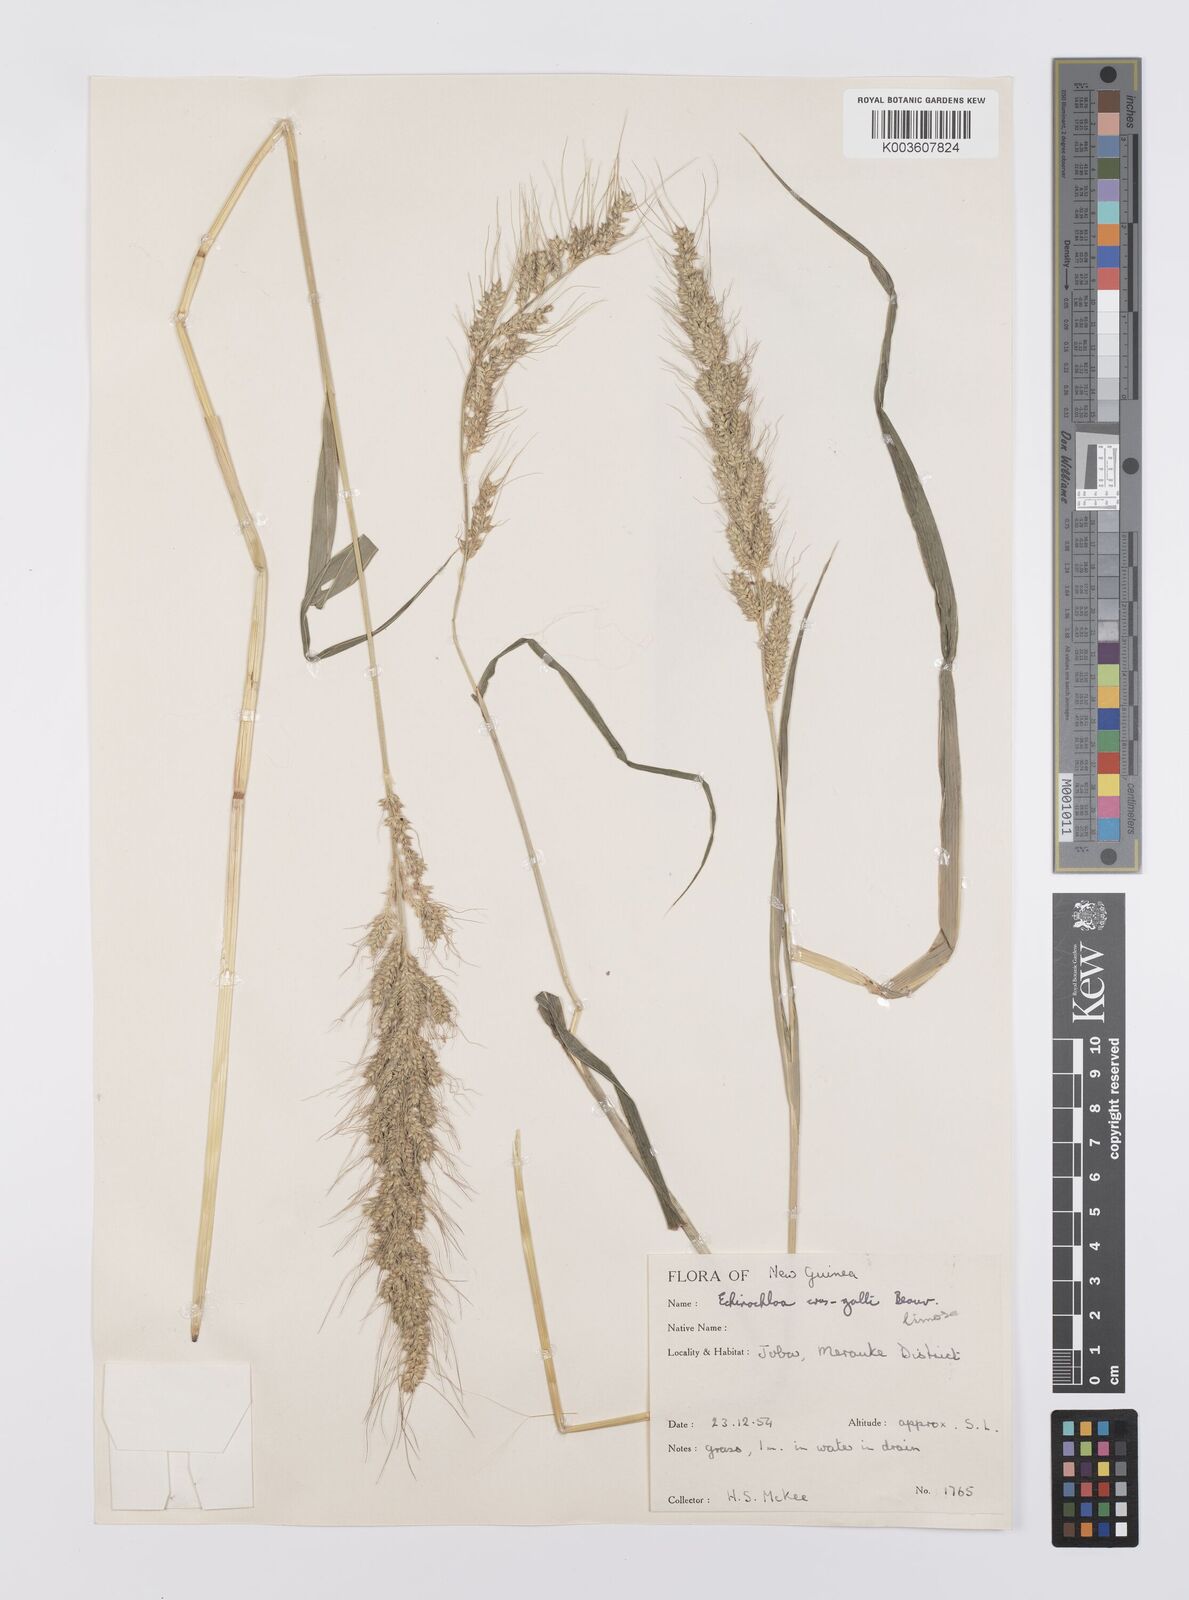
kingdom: Plantae
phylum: Tracheophyta
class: Liliopsida
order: Poales
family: Poaceae
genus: Echinochloa
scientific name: Echinochloa crus-galli
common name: Cockspur
